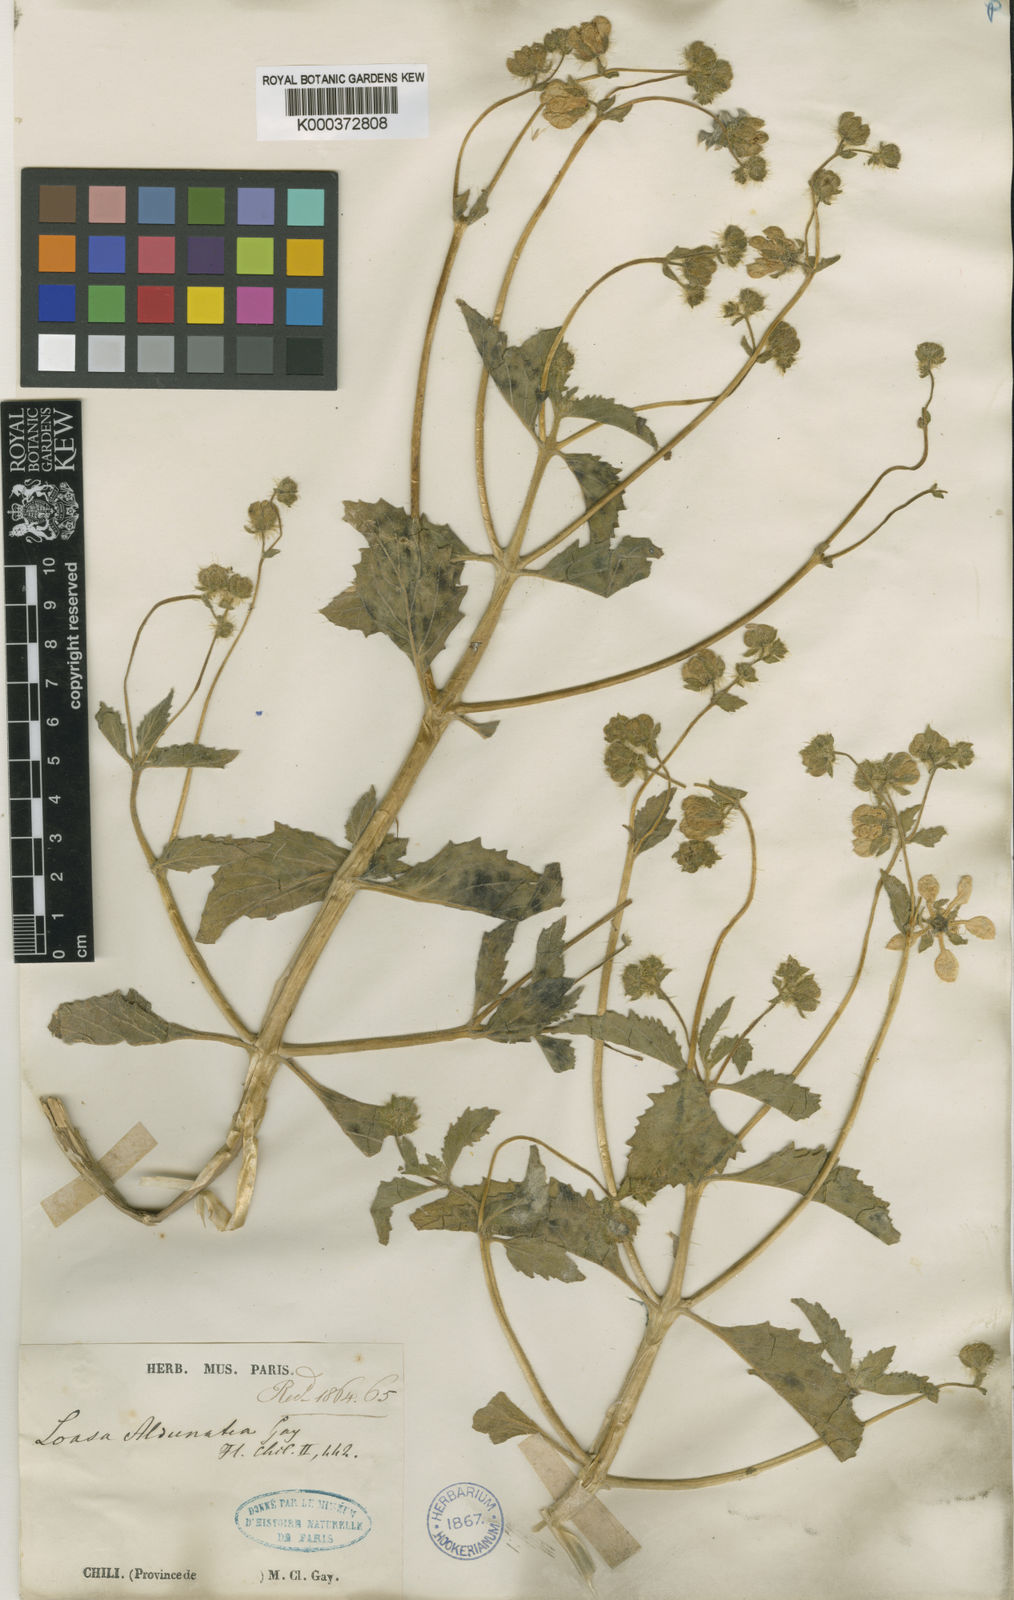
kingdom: Plantae
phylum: Tracheophyta
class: Magnoliopsida
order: Cornales
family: Loasaceae
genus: Loasa
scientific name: Loasa pallida
